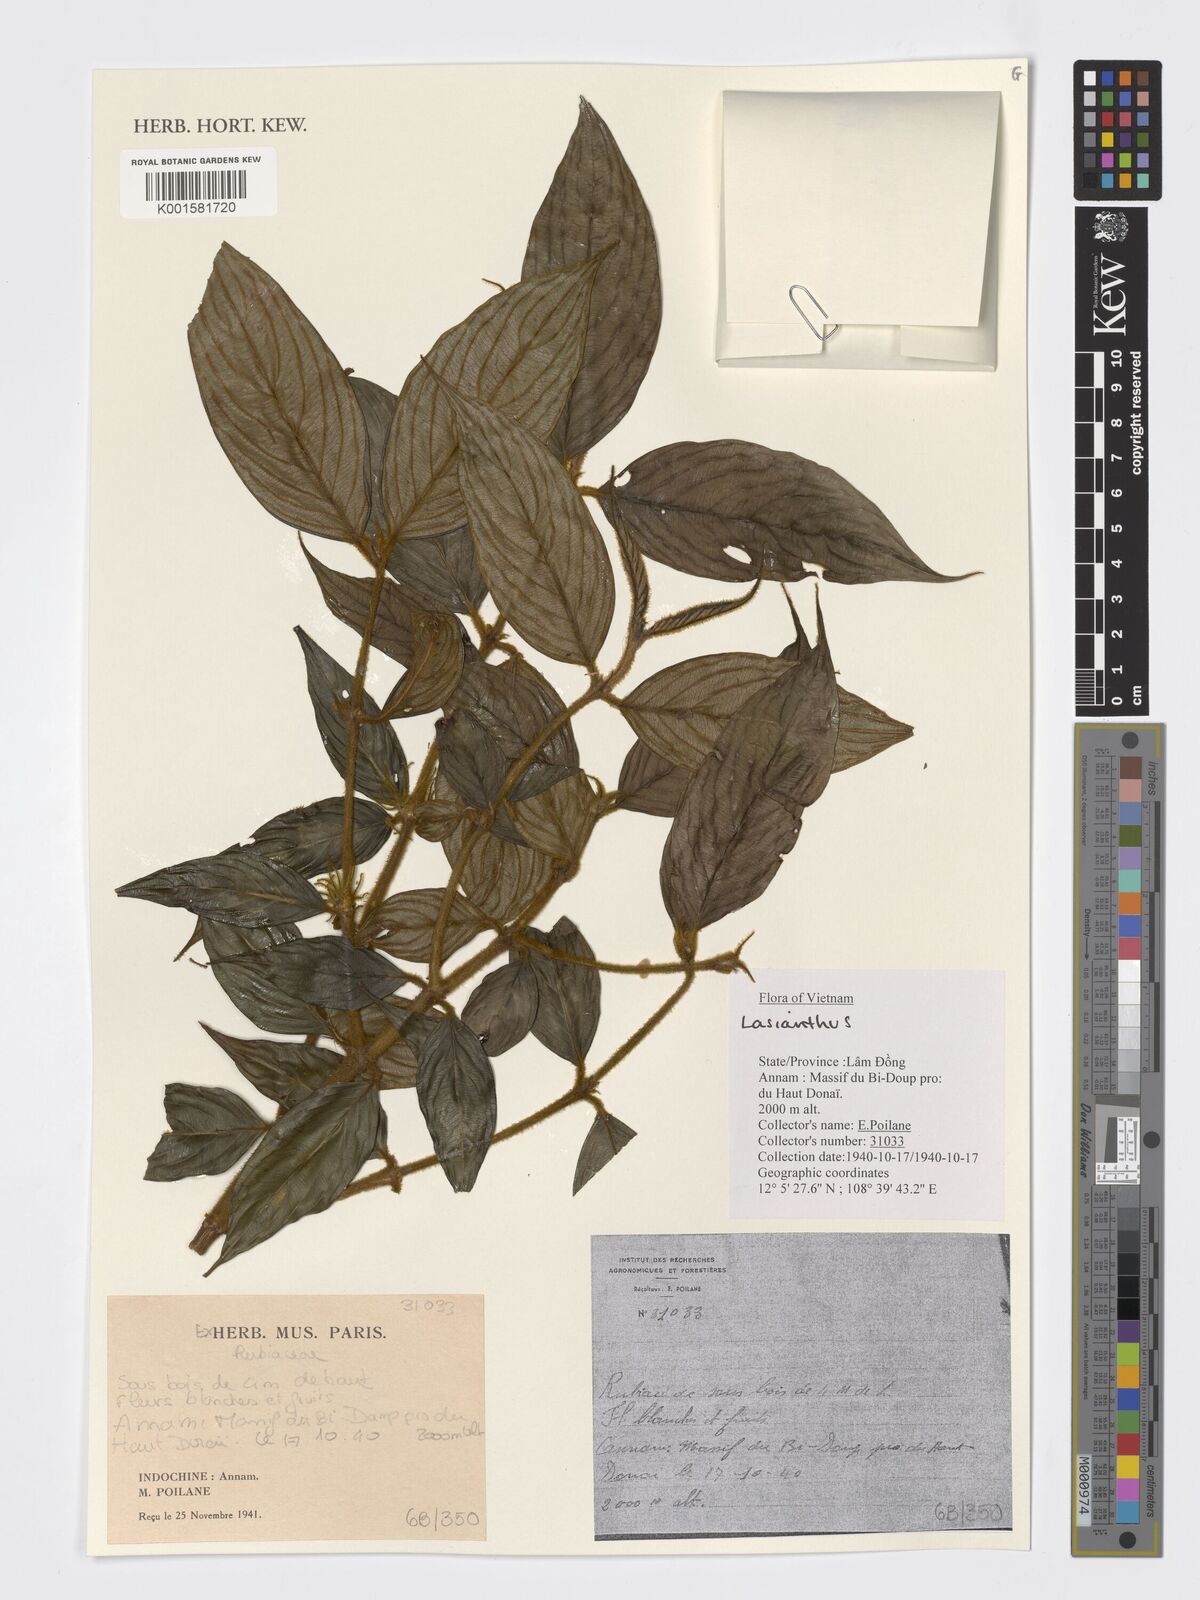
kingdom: Plantae
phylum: Tracheophyta
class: Magnoliopsida
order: Gentianales
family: Rubiaceae
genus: Lasianthus
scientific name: Lasianthus
